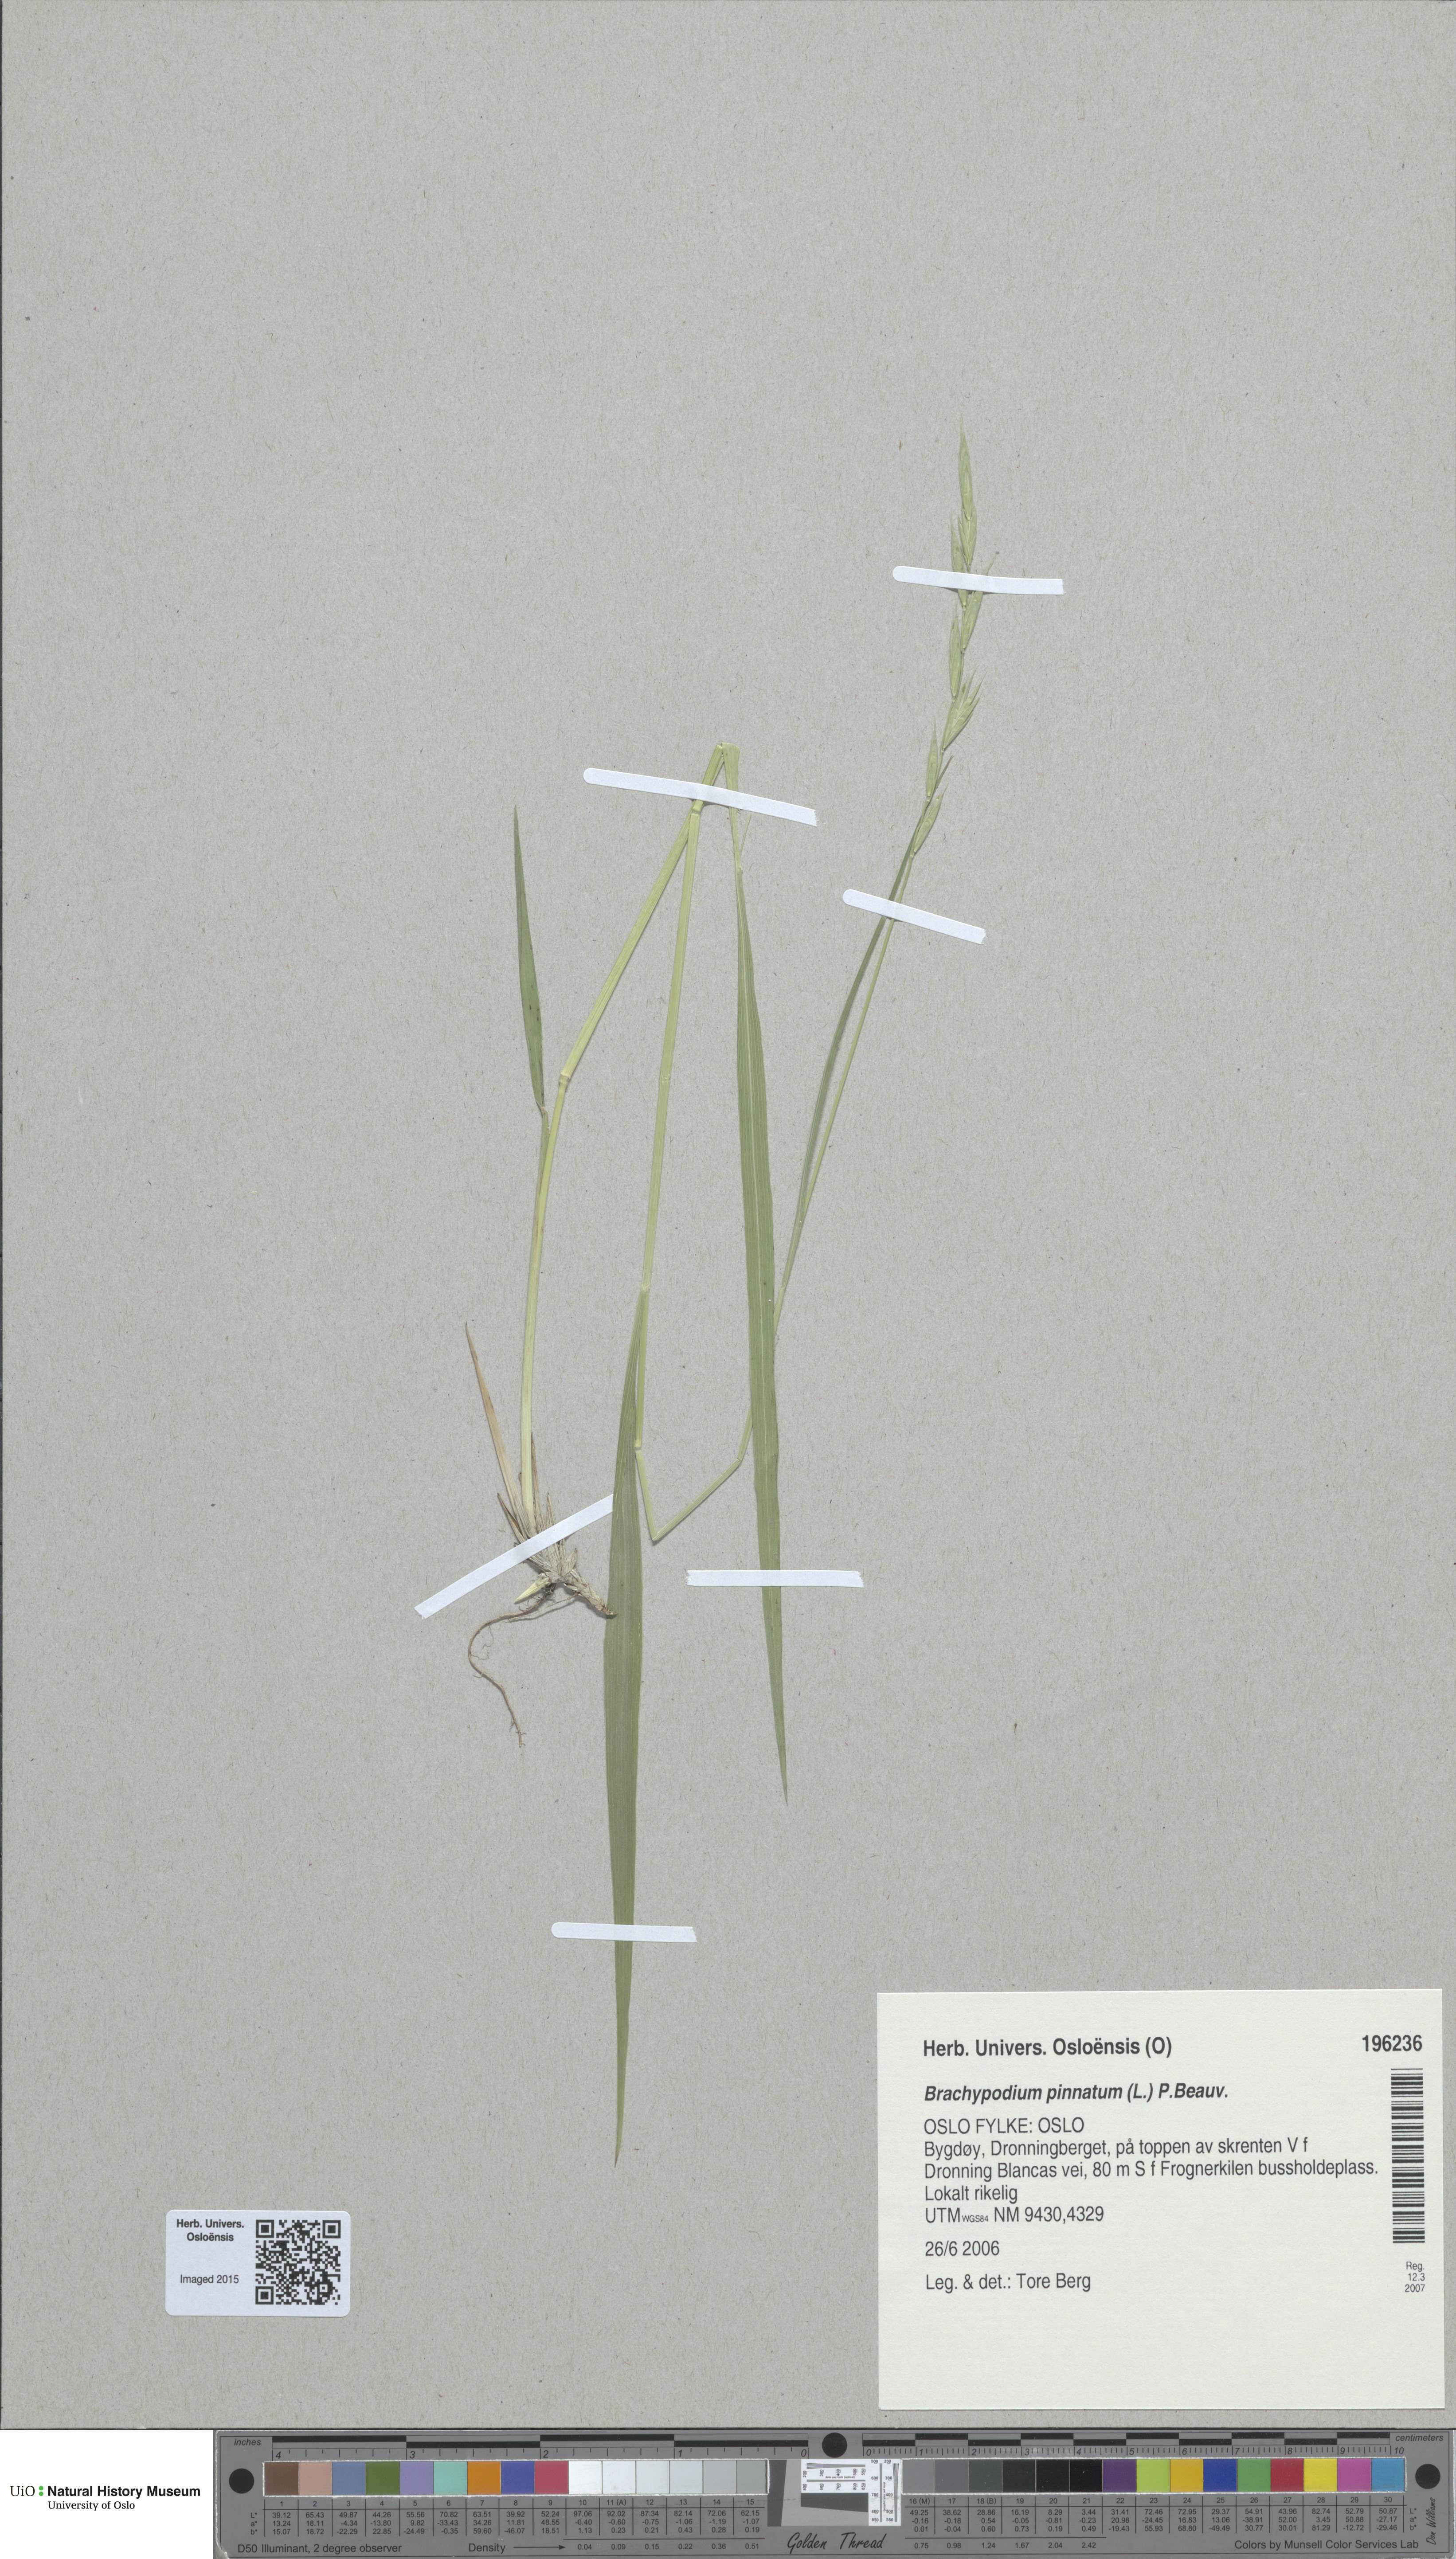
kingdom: Plantae
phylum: Tracheophyta
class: Liliopsida
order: Poales
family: Poaceae
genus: Brachypodium
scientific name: Brachypodium pinnatum
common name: Tor grass
